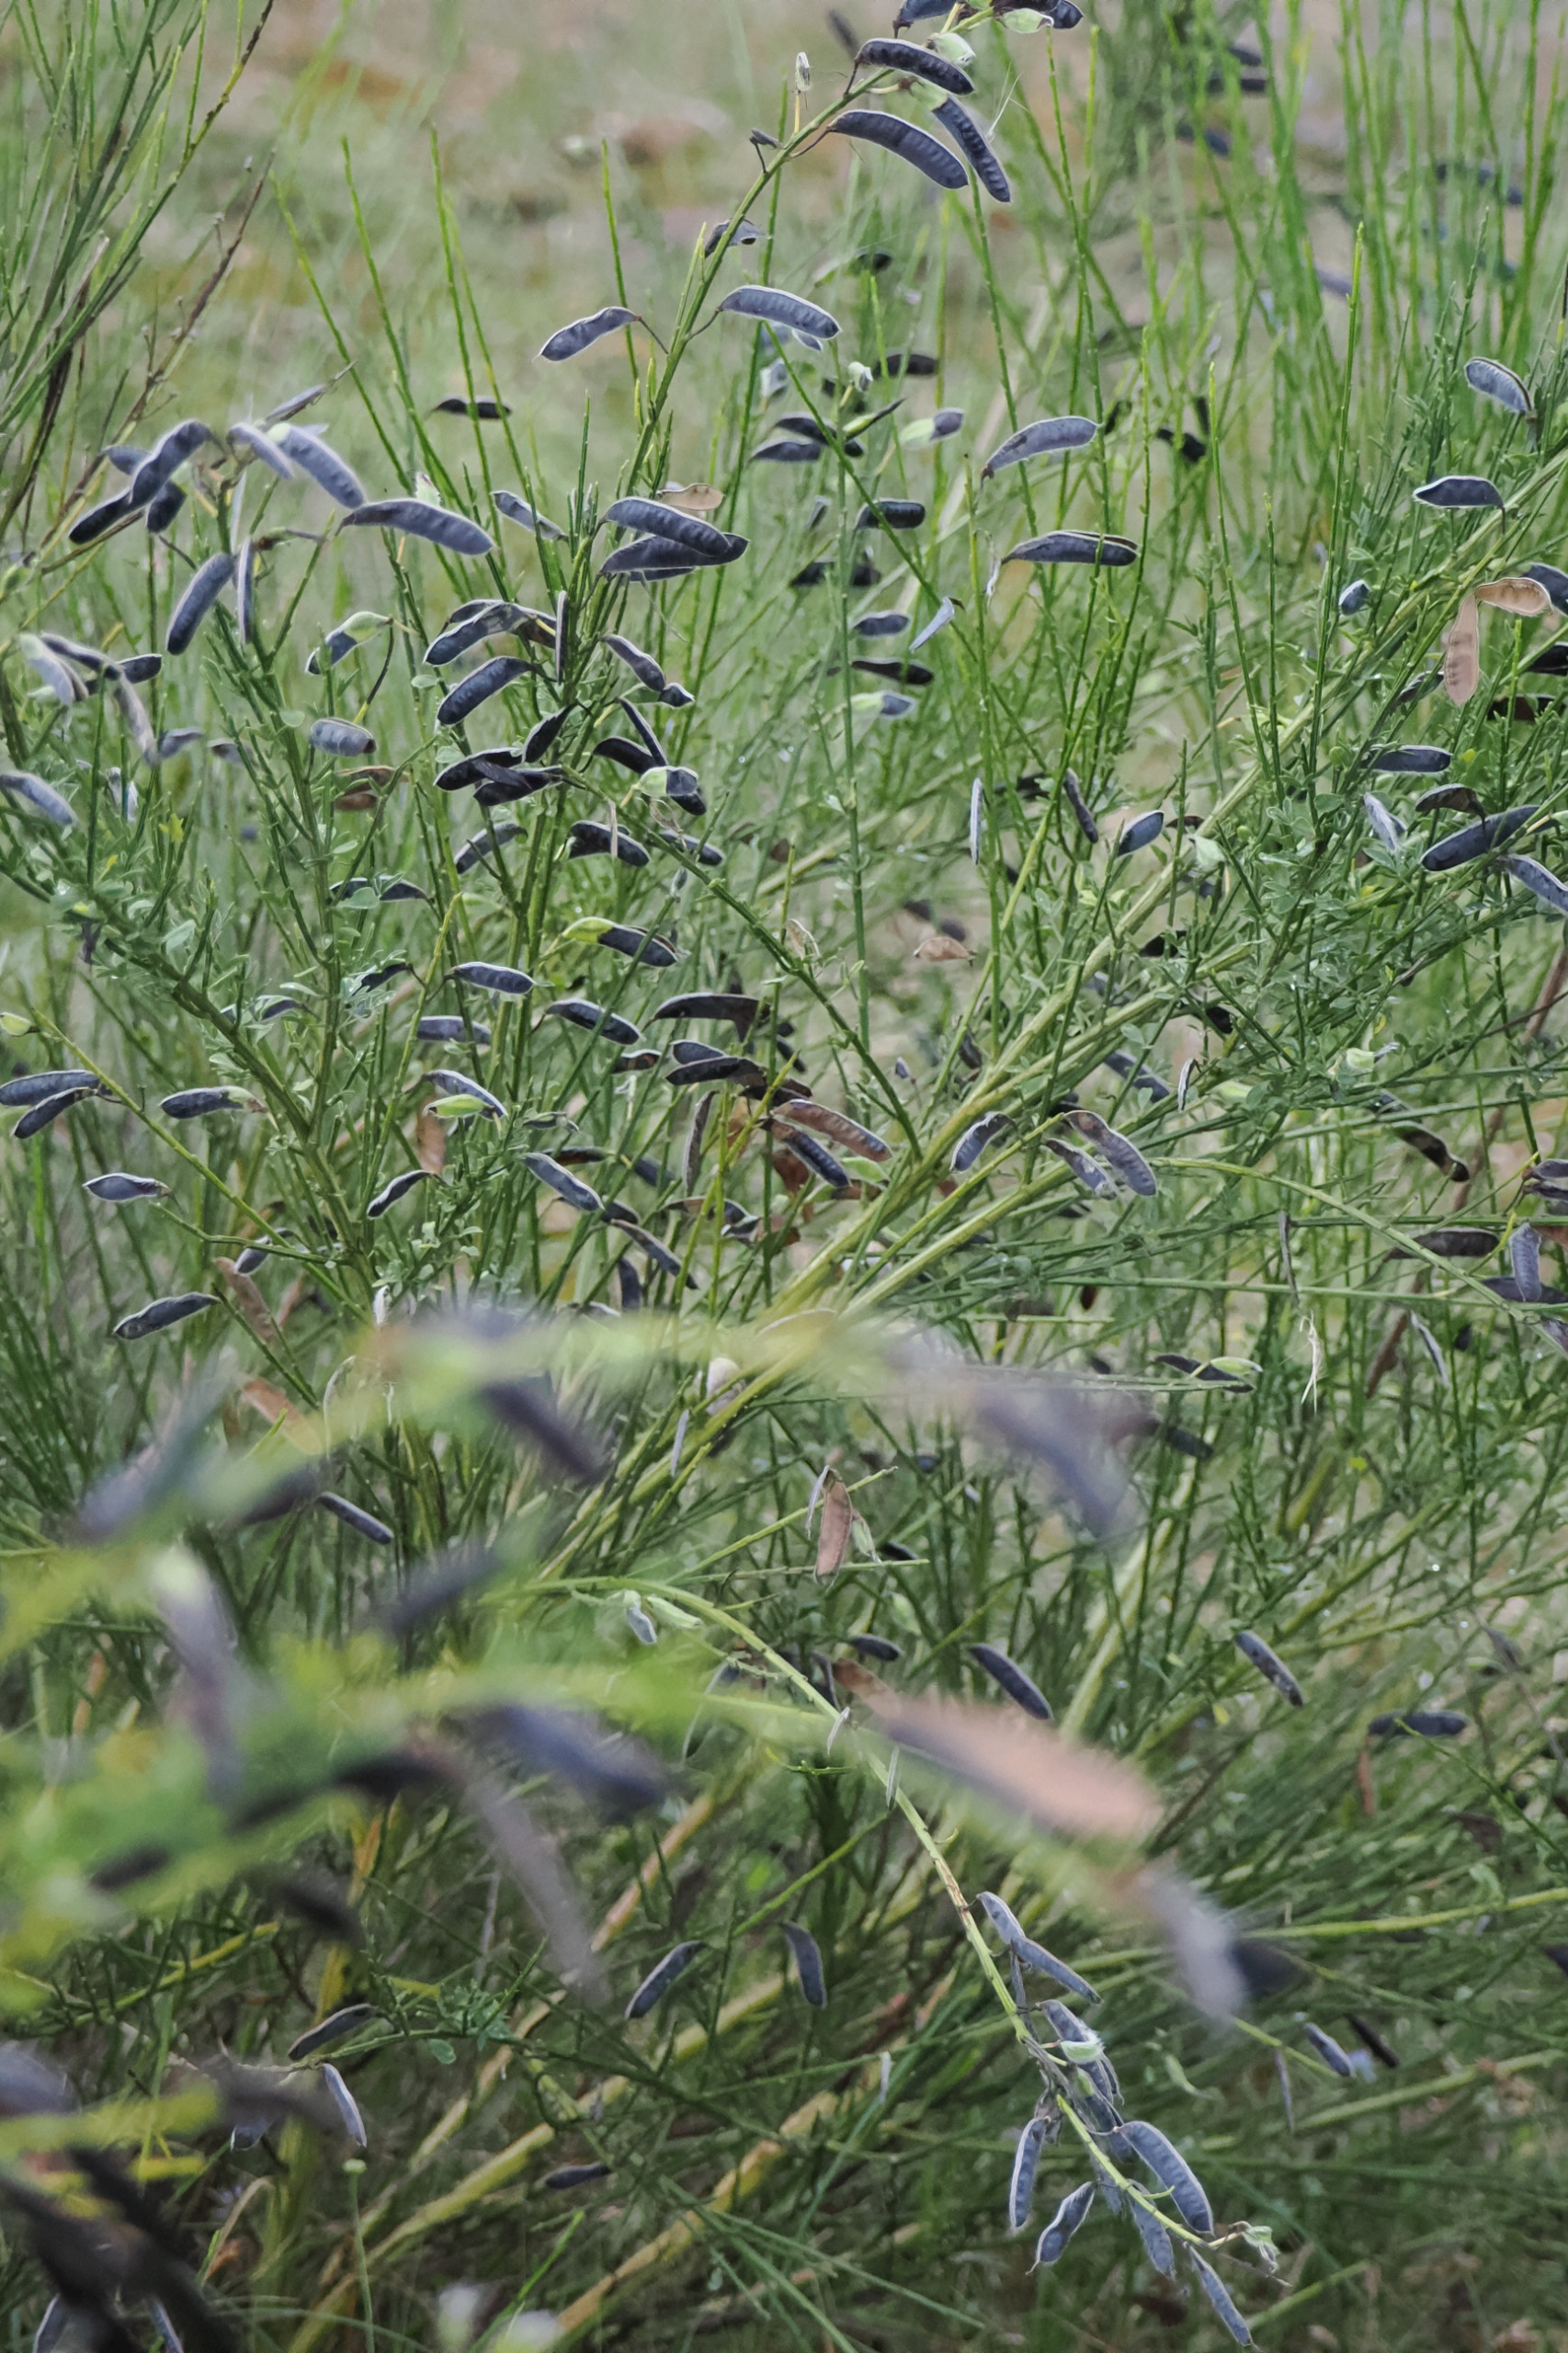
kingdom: Plantae
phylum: Tracheophyta
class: Magnoliopsida
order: Fabales
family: Fabaceae
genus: Cytisus
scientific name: Cytisus scoparius
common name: Almindelig gyvel
